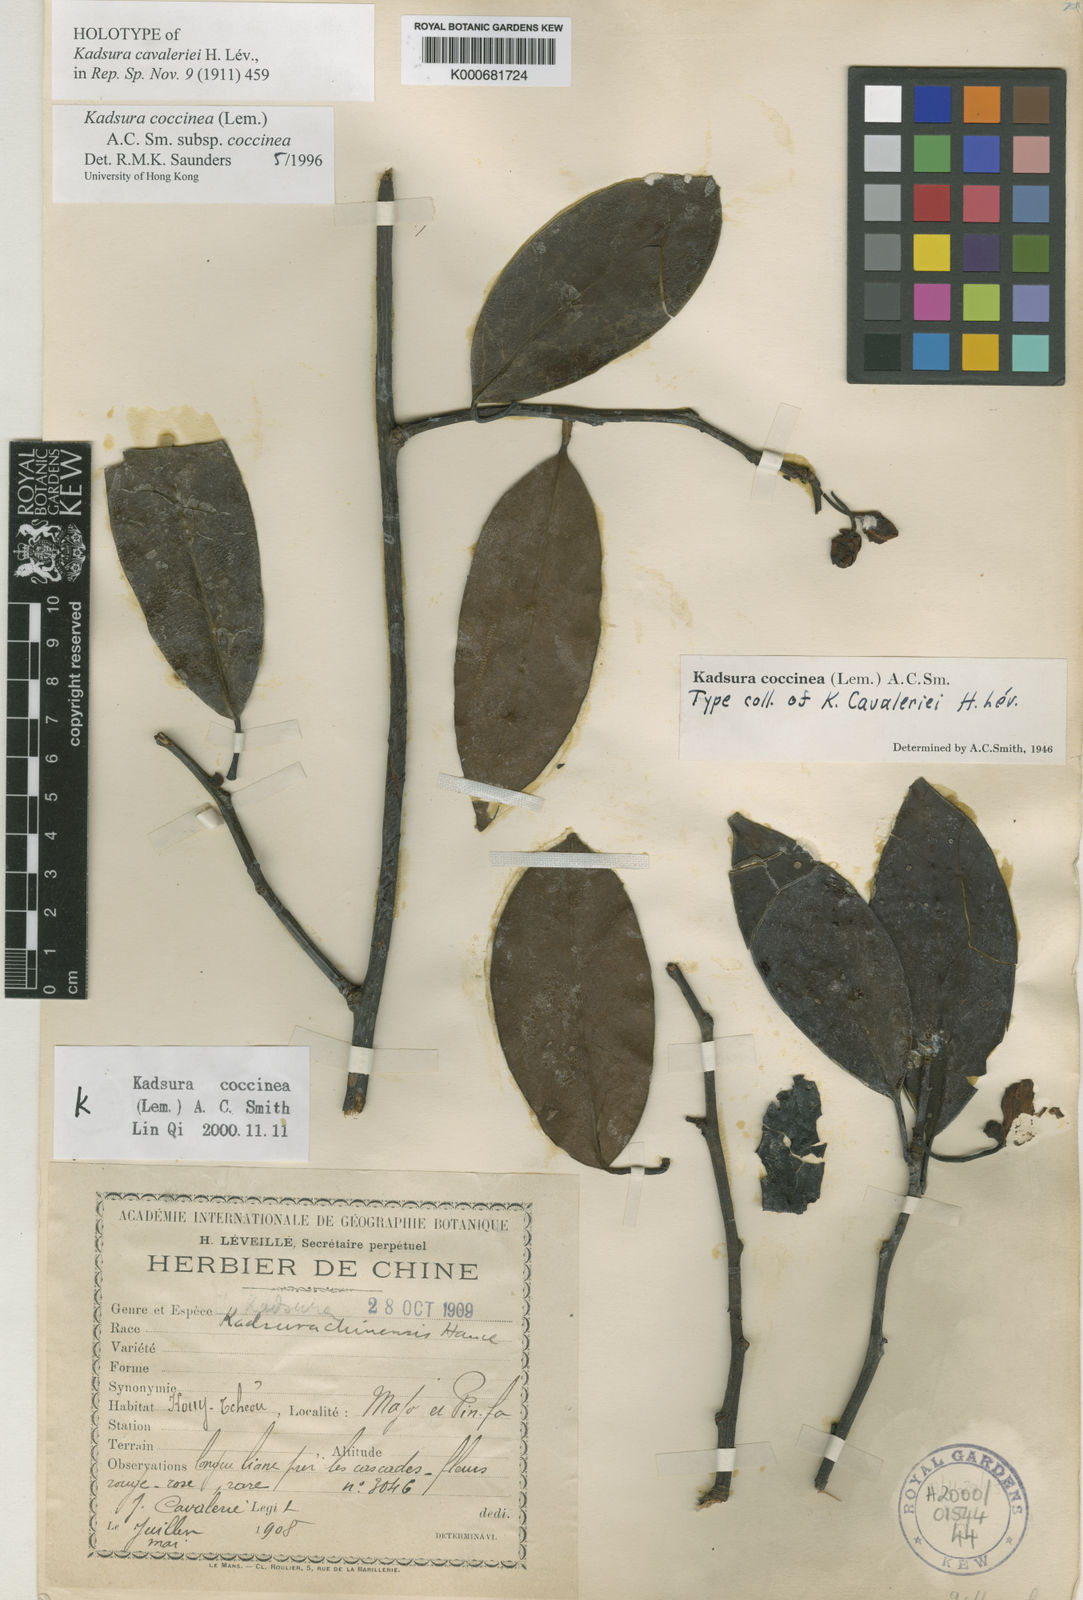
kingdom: Plantae
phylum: Tracheophyta
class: Magnoliopsida
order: Austrobaileyales
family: Schisandraceae
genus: Kadsura
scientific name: Kadsura coccinea
